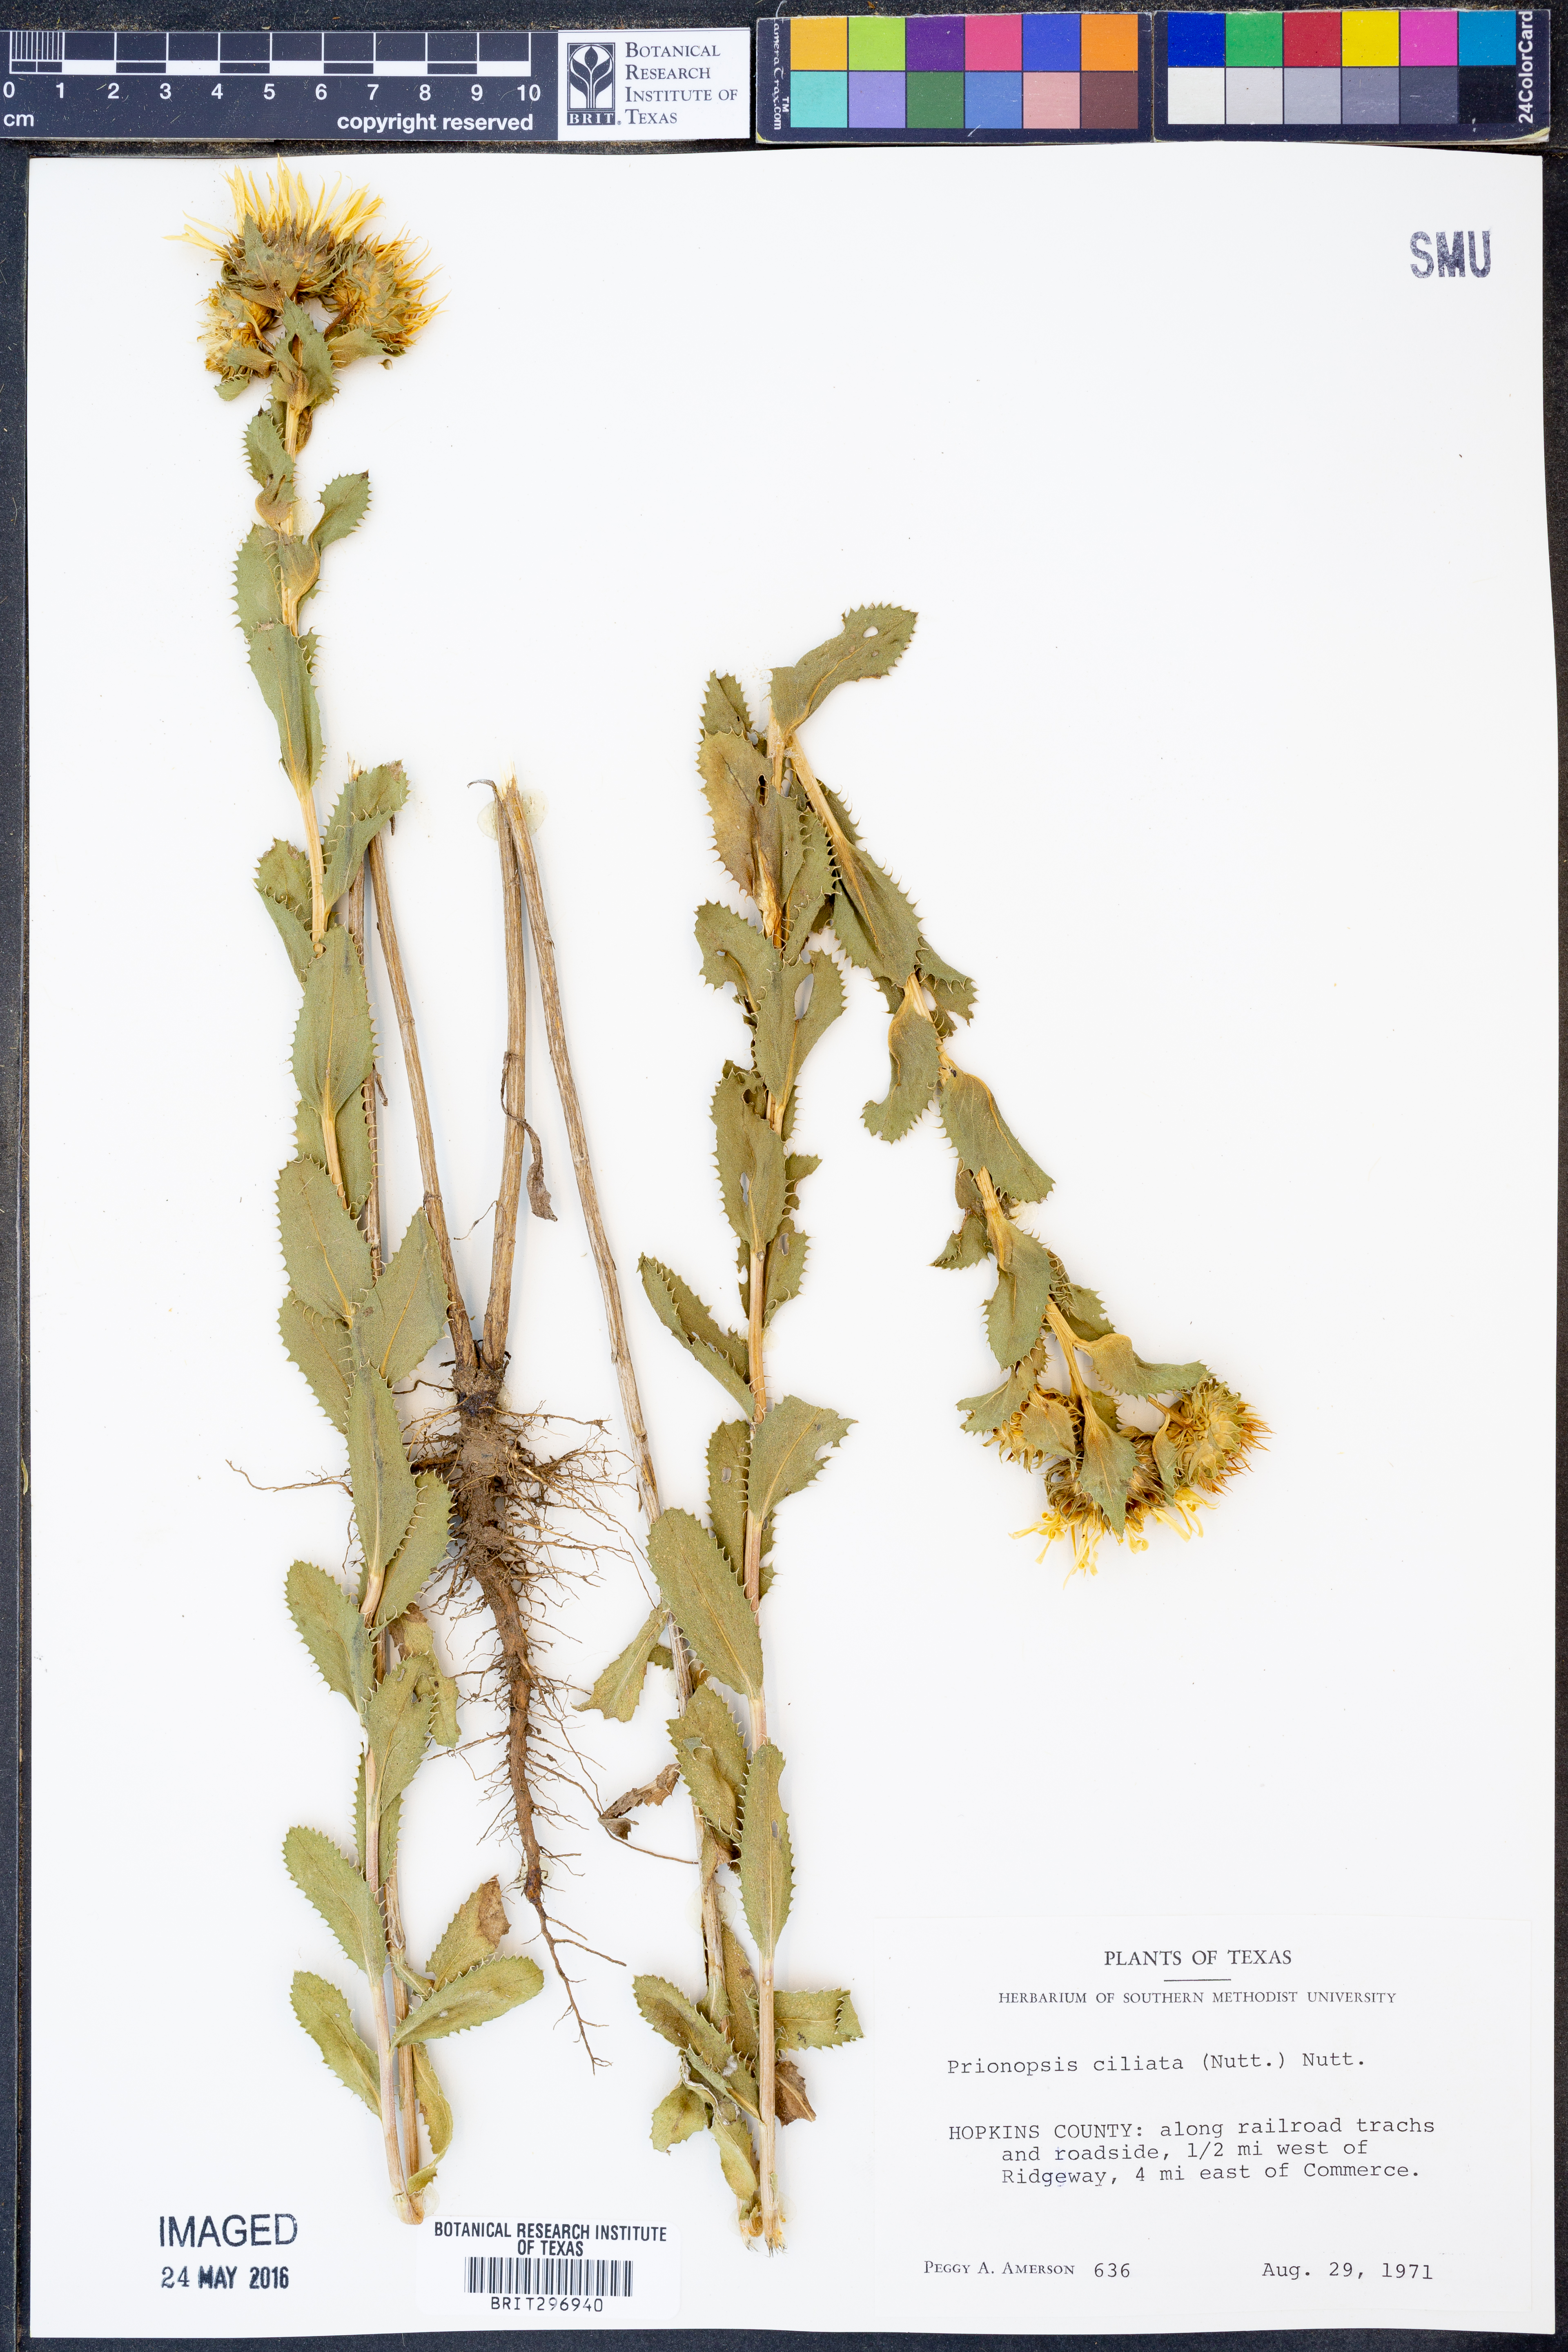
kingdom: Plantae
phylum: Tracheophyta
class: Magnoliopsida
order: Asterales
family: Asteraceae
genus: Grindelia
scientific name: Grindelia ciliata
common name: Goldenweed
